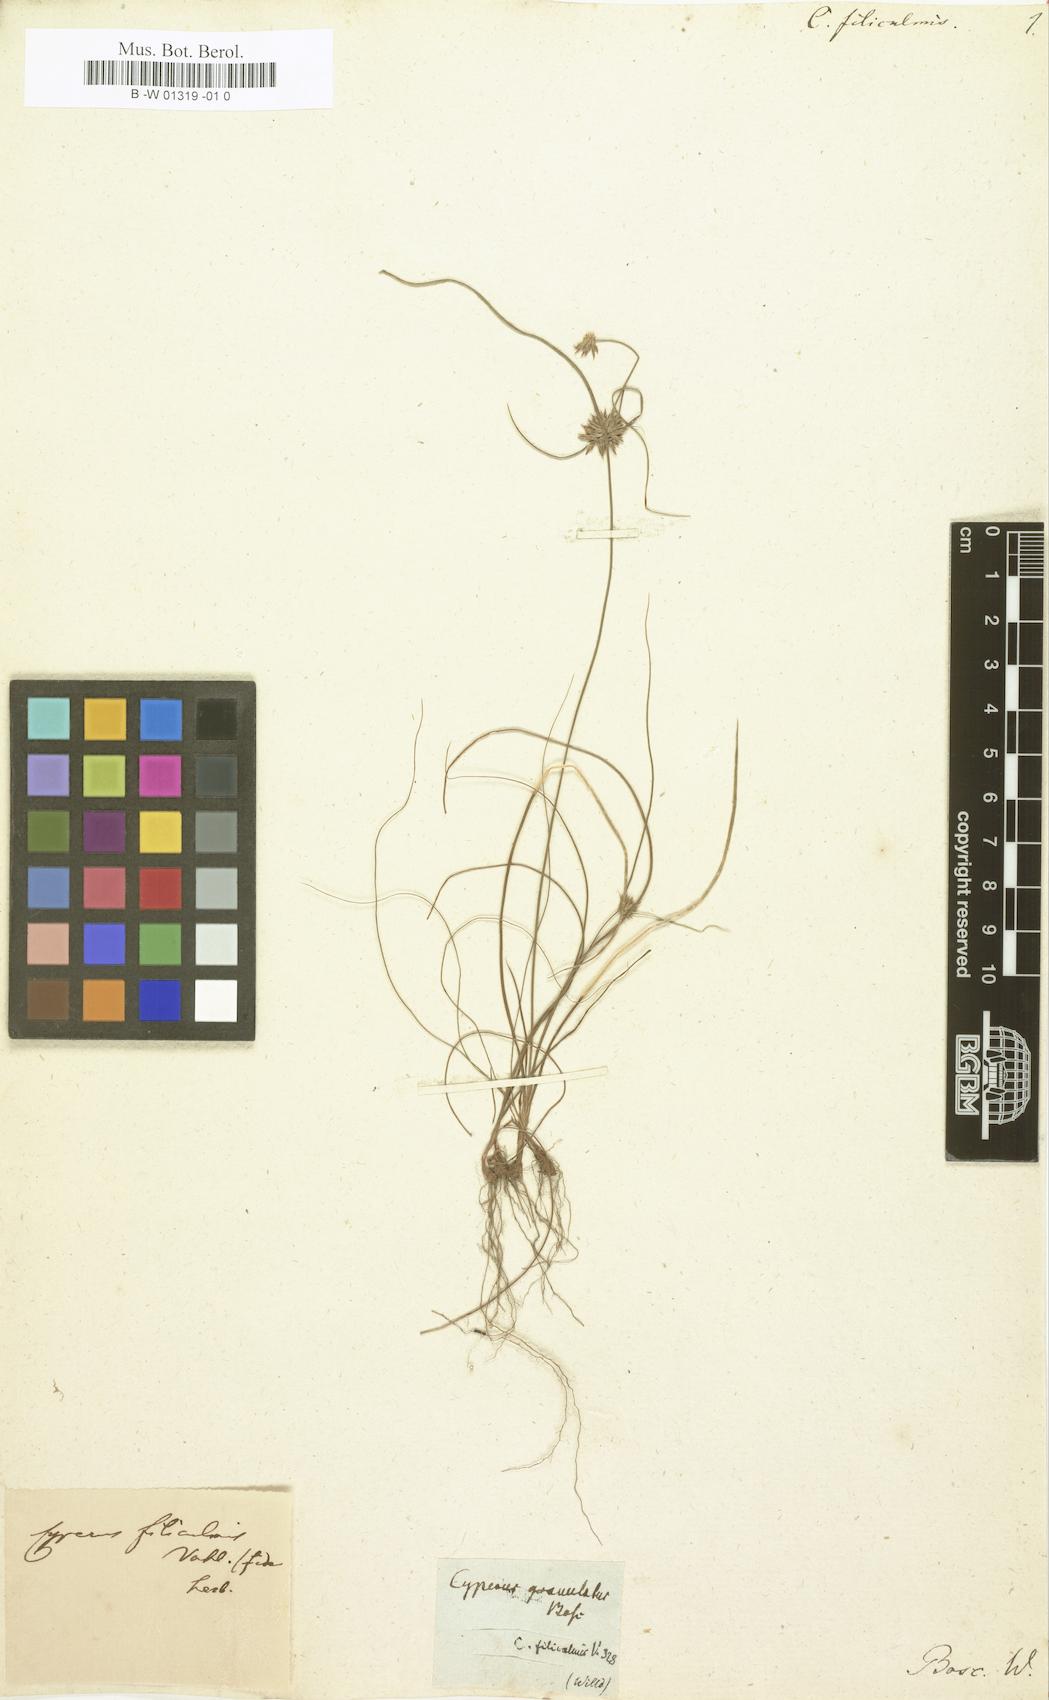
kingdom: Plantae
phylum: Tracheophyta
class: Liliopsida
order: Poales
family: Cyperaceae
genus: Cyperus
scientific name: Cyperus filiculmis
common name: Slender sand sedge
